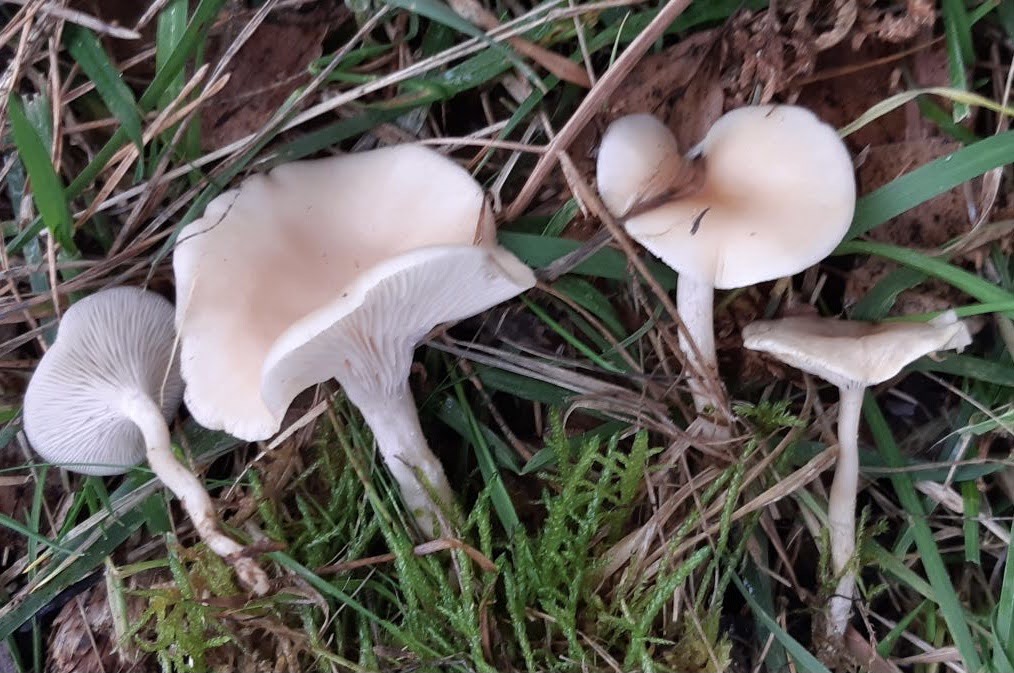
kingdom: Fungi
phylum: Basidiomycota
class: Agaricomycetes
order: Agaricales
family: Tricholomataceae
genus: Clitocybe
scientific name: Clitocybe fragrans
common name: vellugtende tragthat
